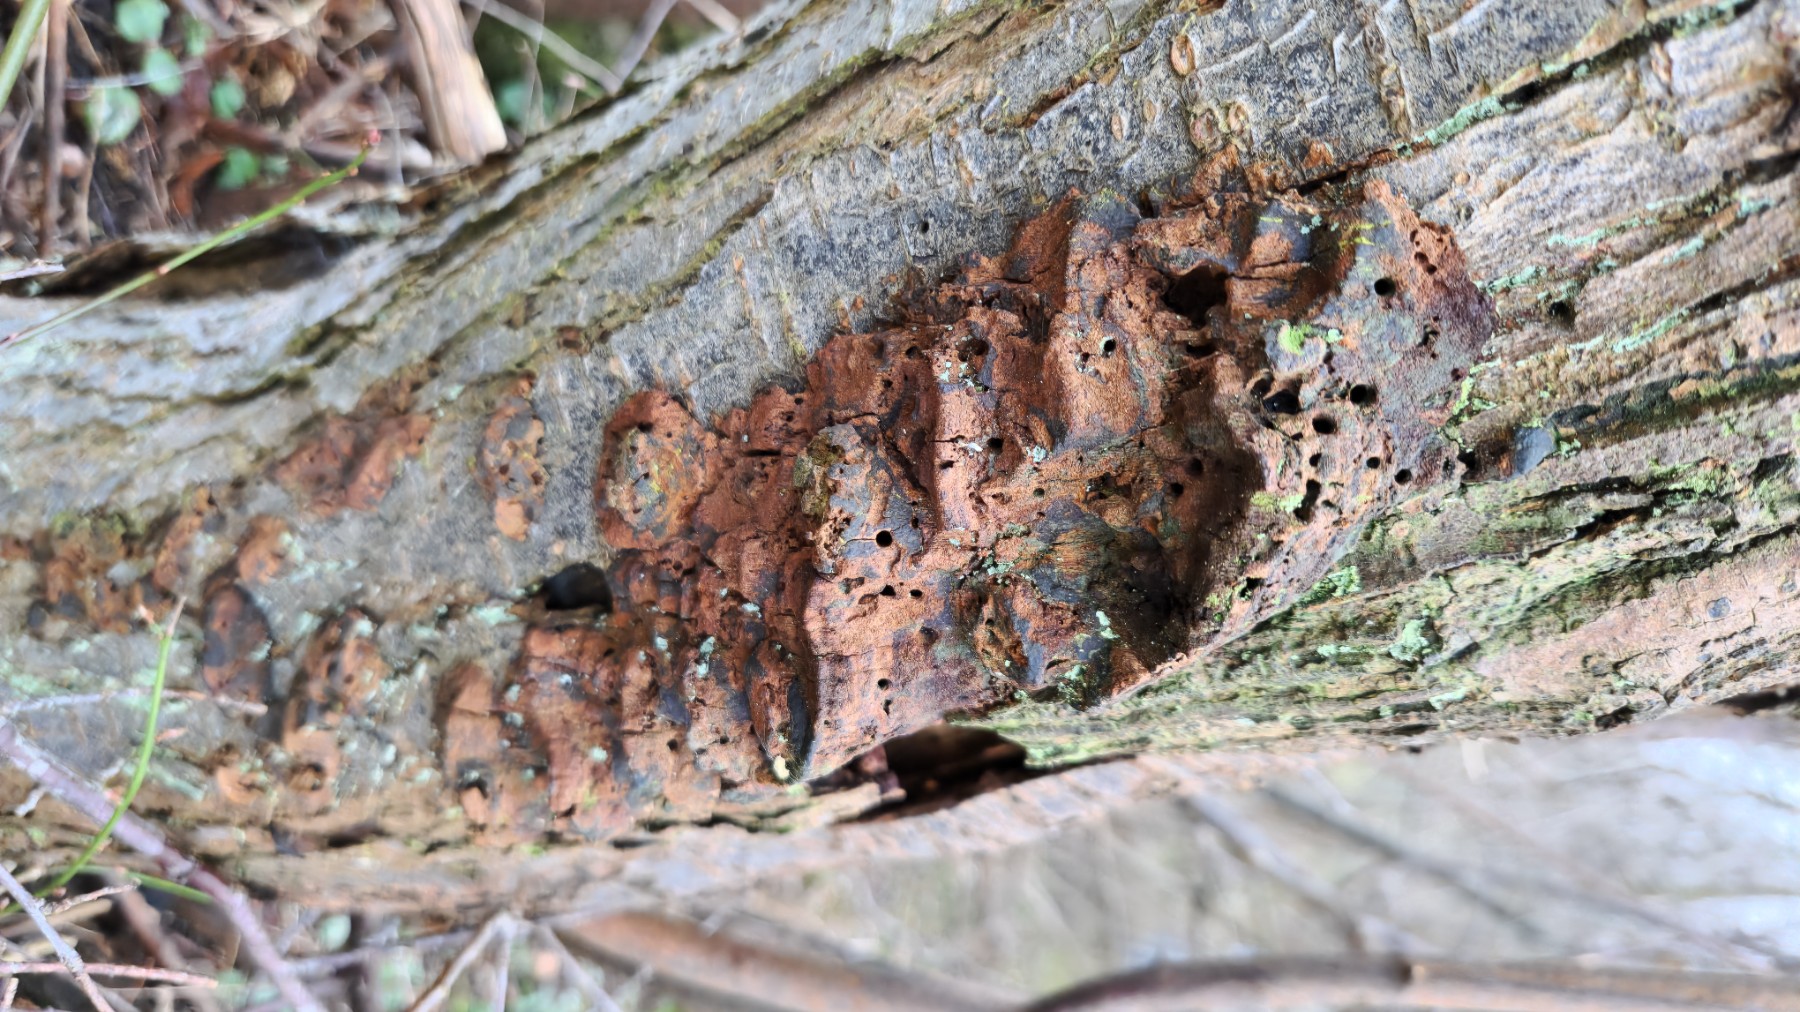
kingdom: Fungi
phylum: Basidiomycota
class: Agaricomycetes
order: Hymenochaetales
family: Hymenochaetaceae
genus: Phellinus
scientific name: Phellinus pomaceus
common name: blomme-ildporesvamp
